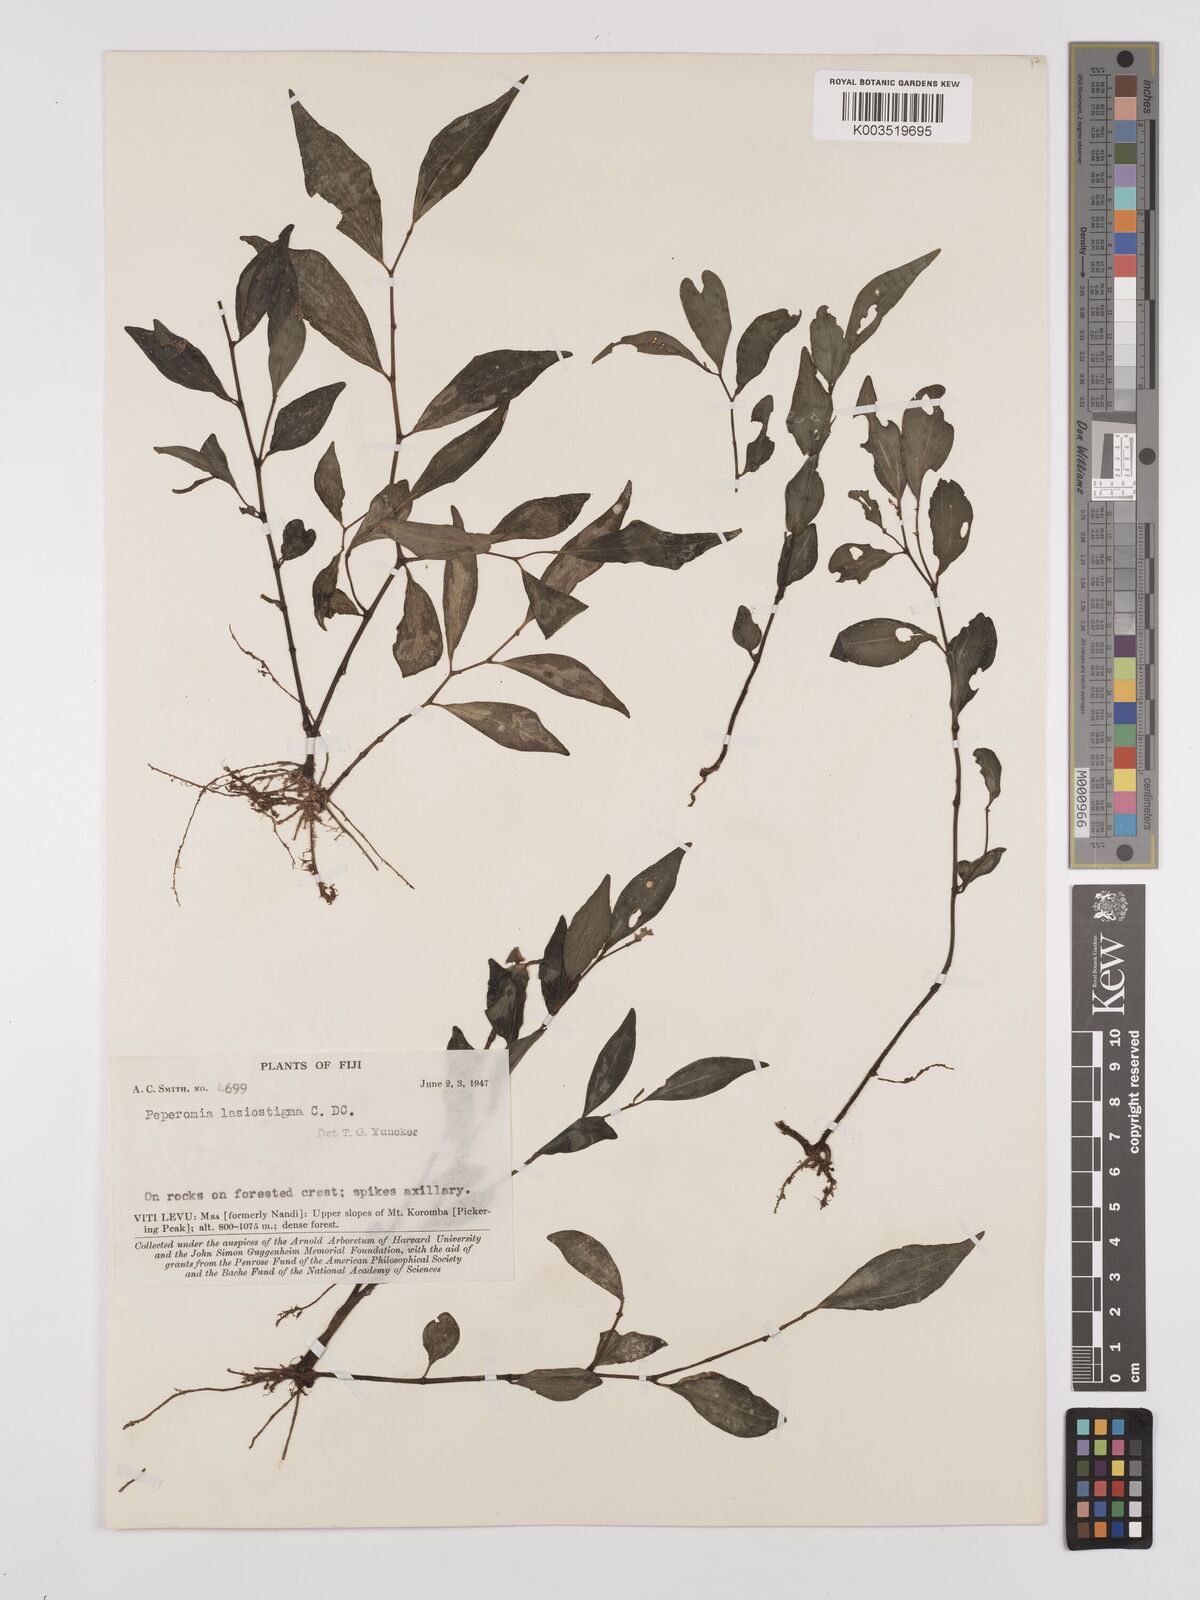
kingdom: Plantae
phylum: Tracheophyta
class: Magnoliopsida
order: Piperales
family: Piperaceae
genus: Peperomia
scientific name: Peperomia lasiostigma
